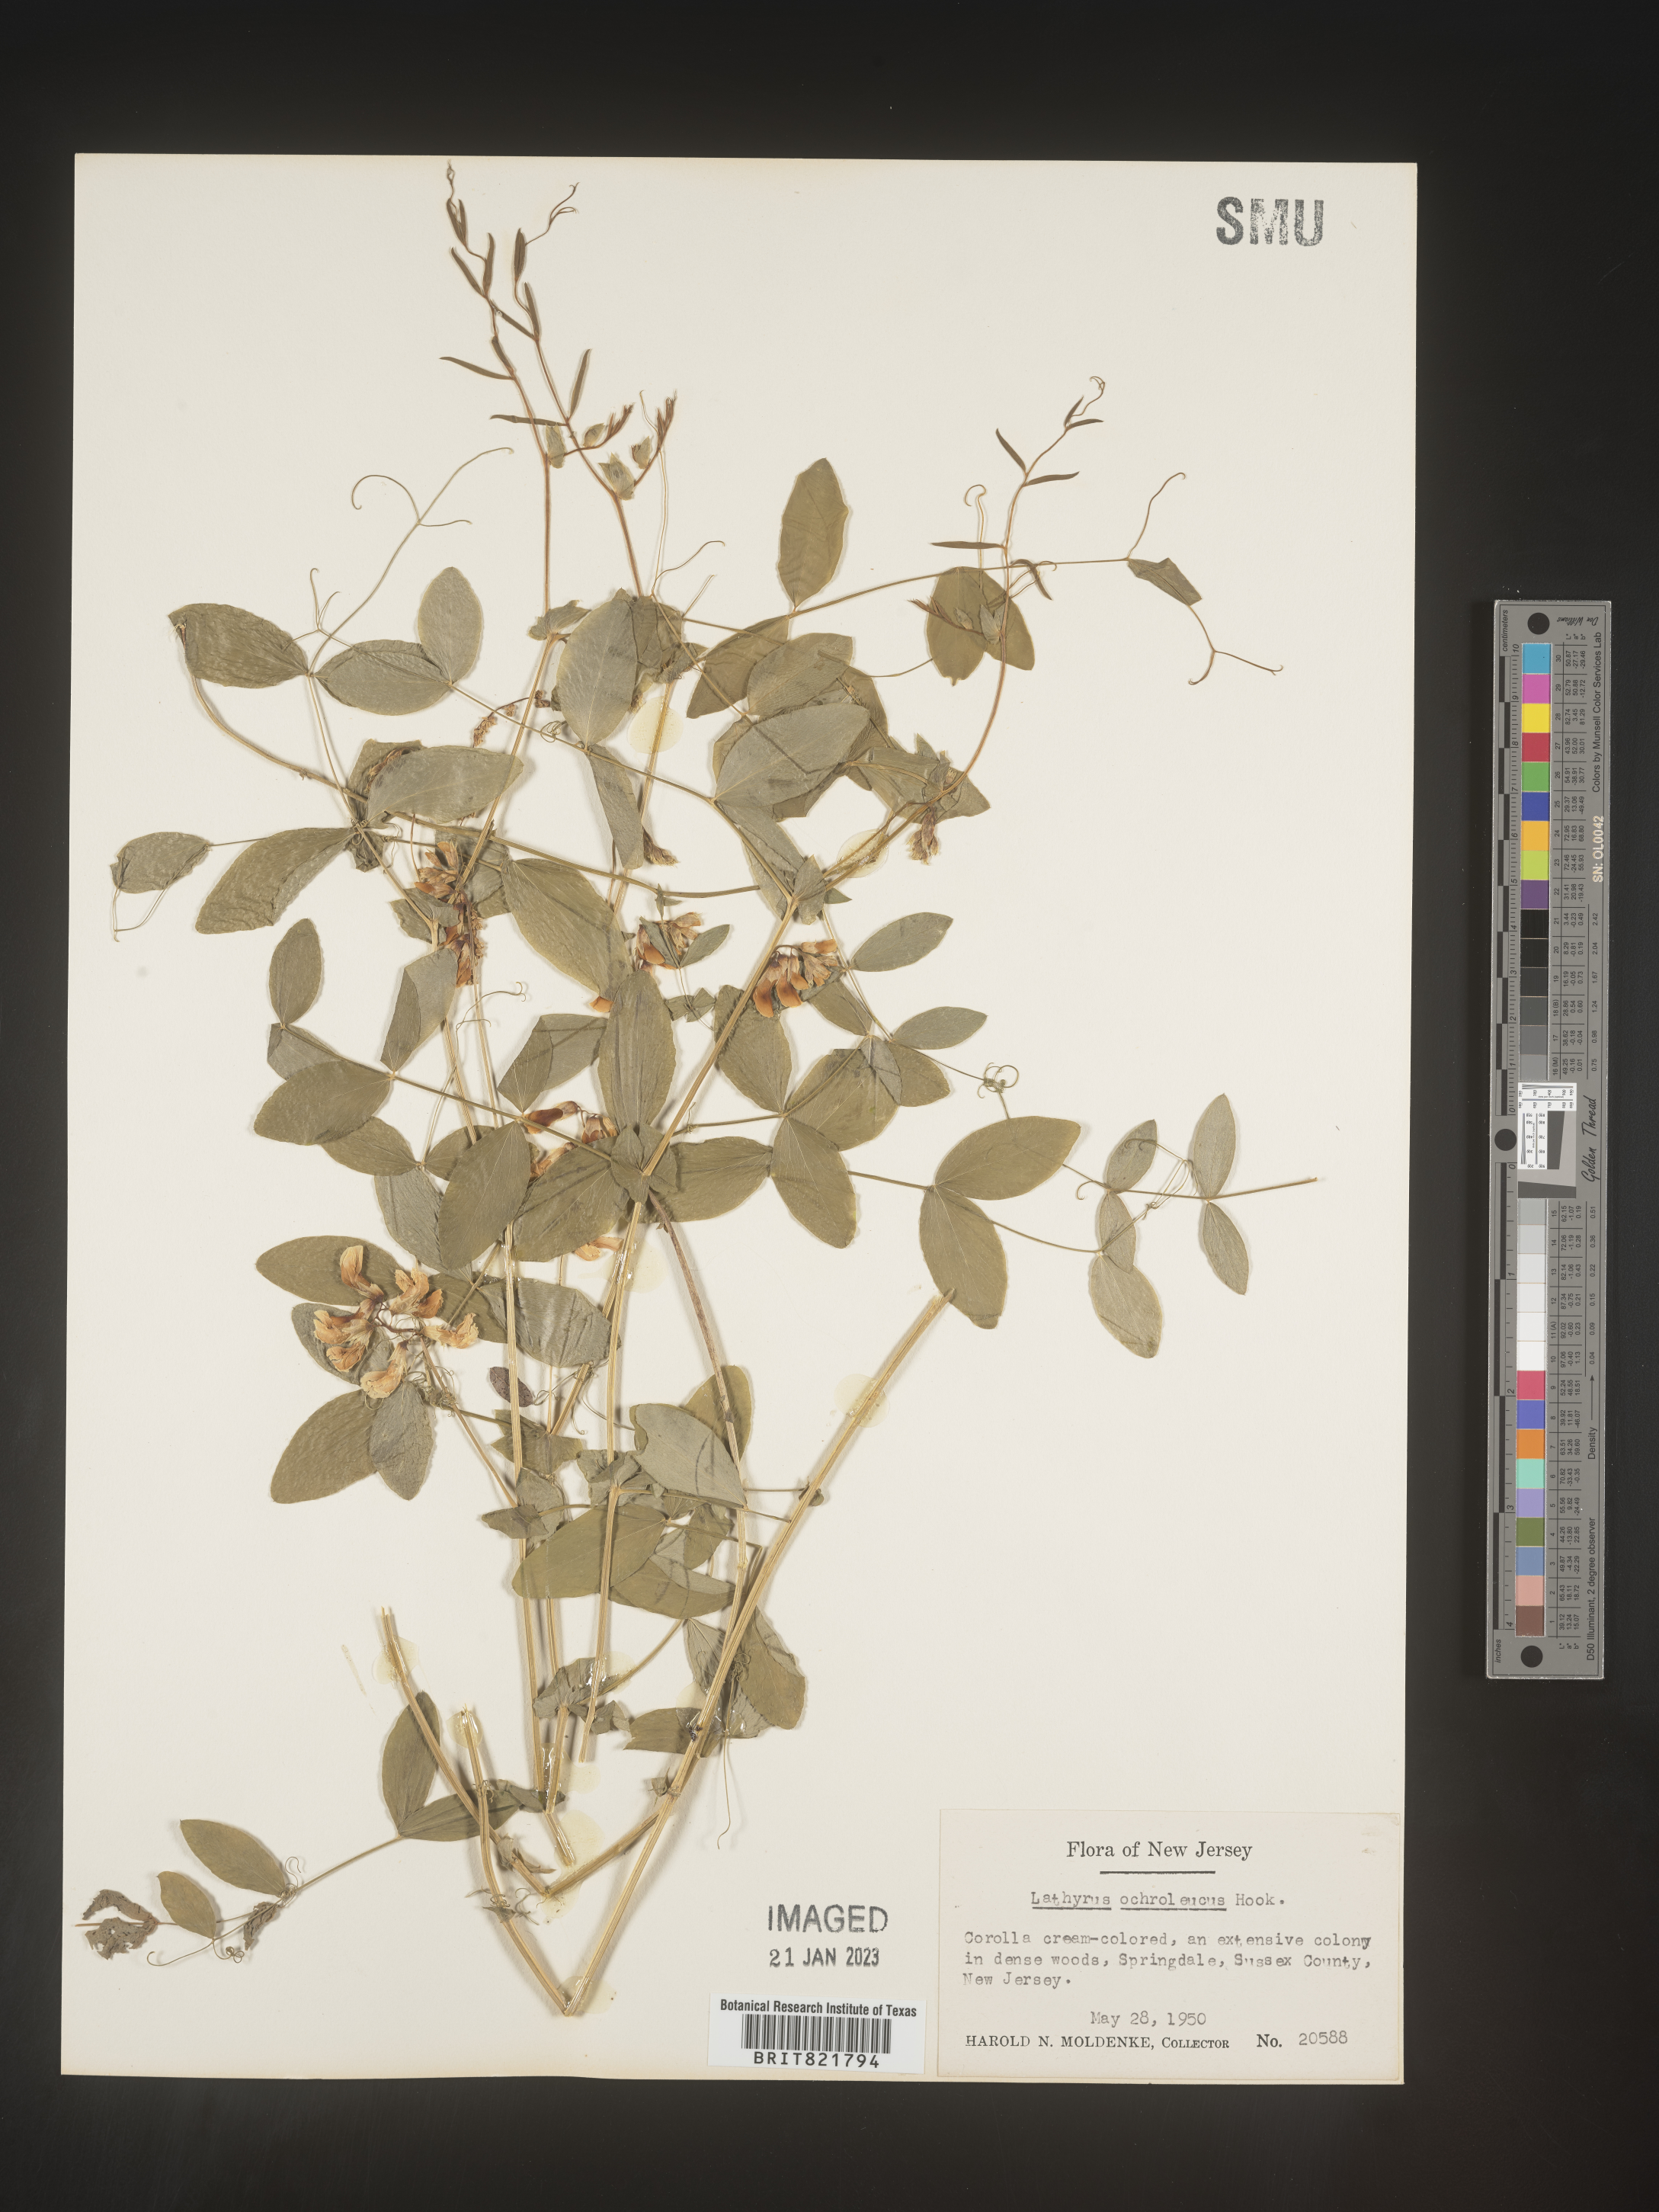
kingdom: Plantae
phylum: Tracheophyta
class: Magnoliopsida
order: Fabales
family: Fabaceae
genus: Lathyrus
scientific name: Lathyrus
